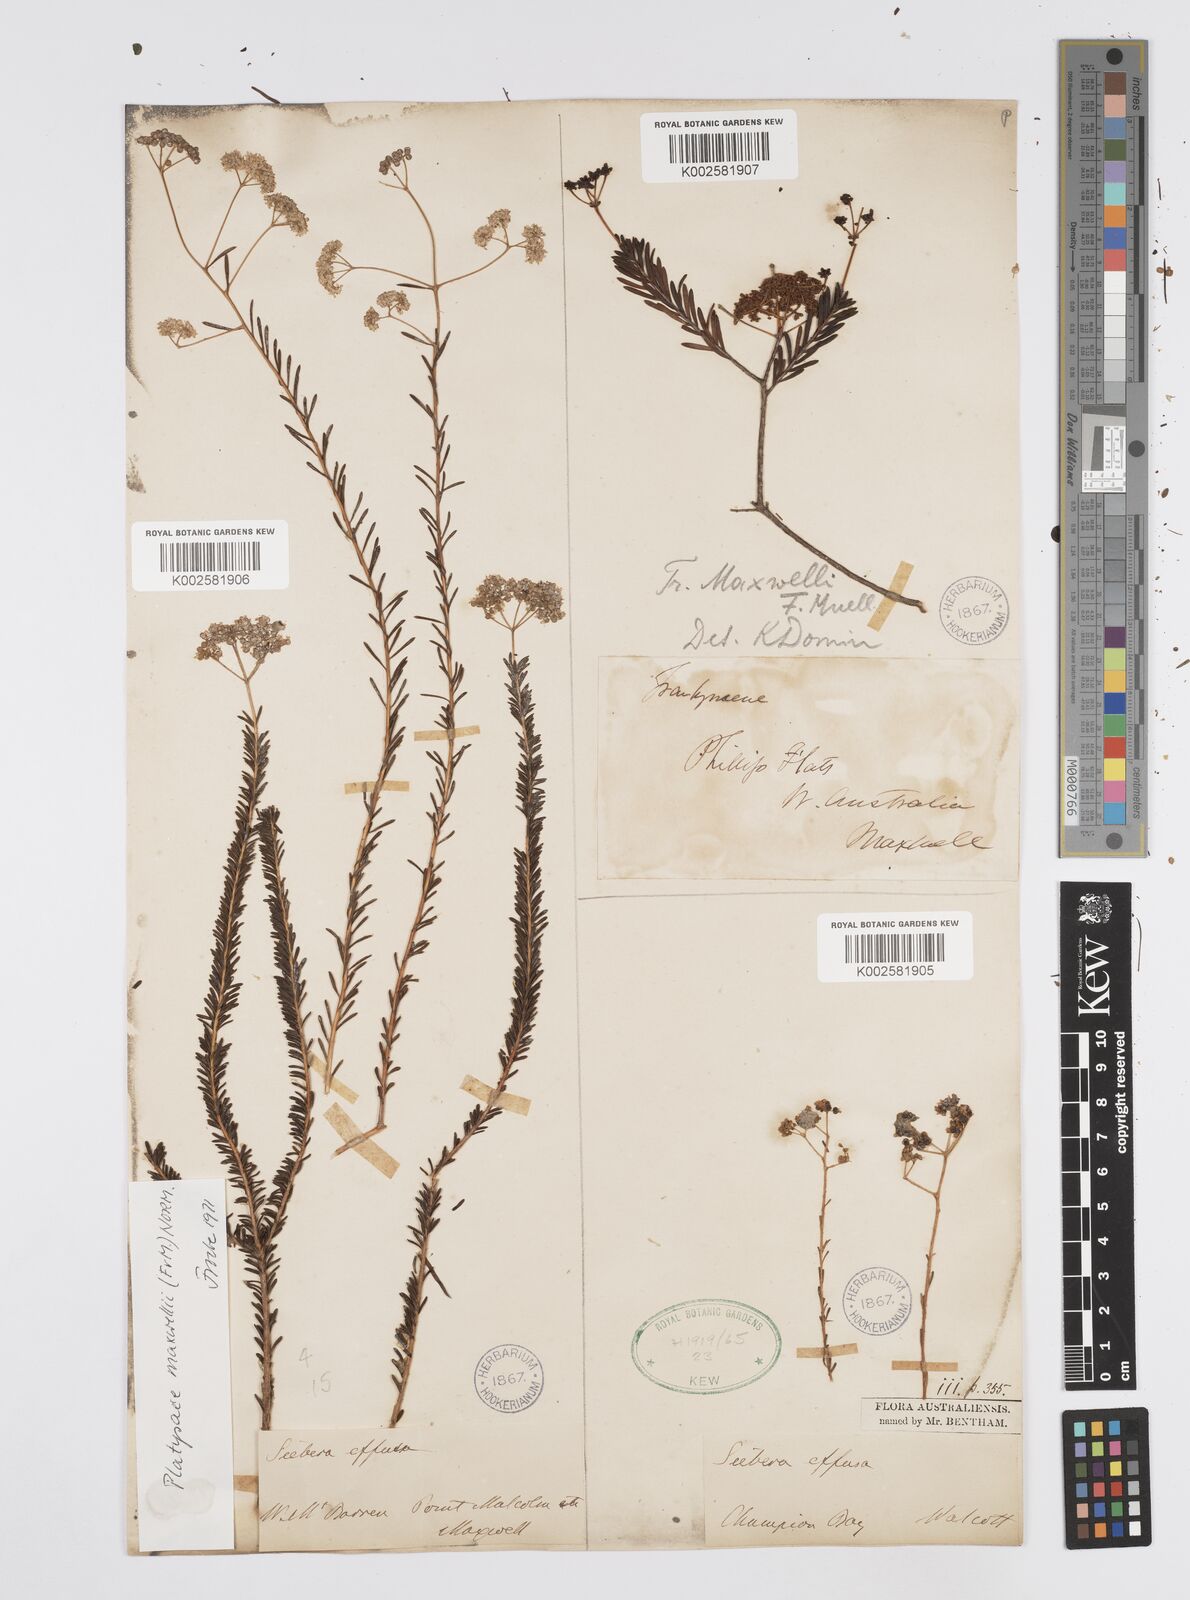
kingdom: Plantae
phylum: Tracheophyta
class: Magnoliopsida
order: Apiales
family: Apiaceae
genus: Platysace
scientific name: Platysace maxwellii
